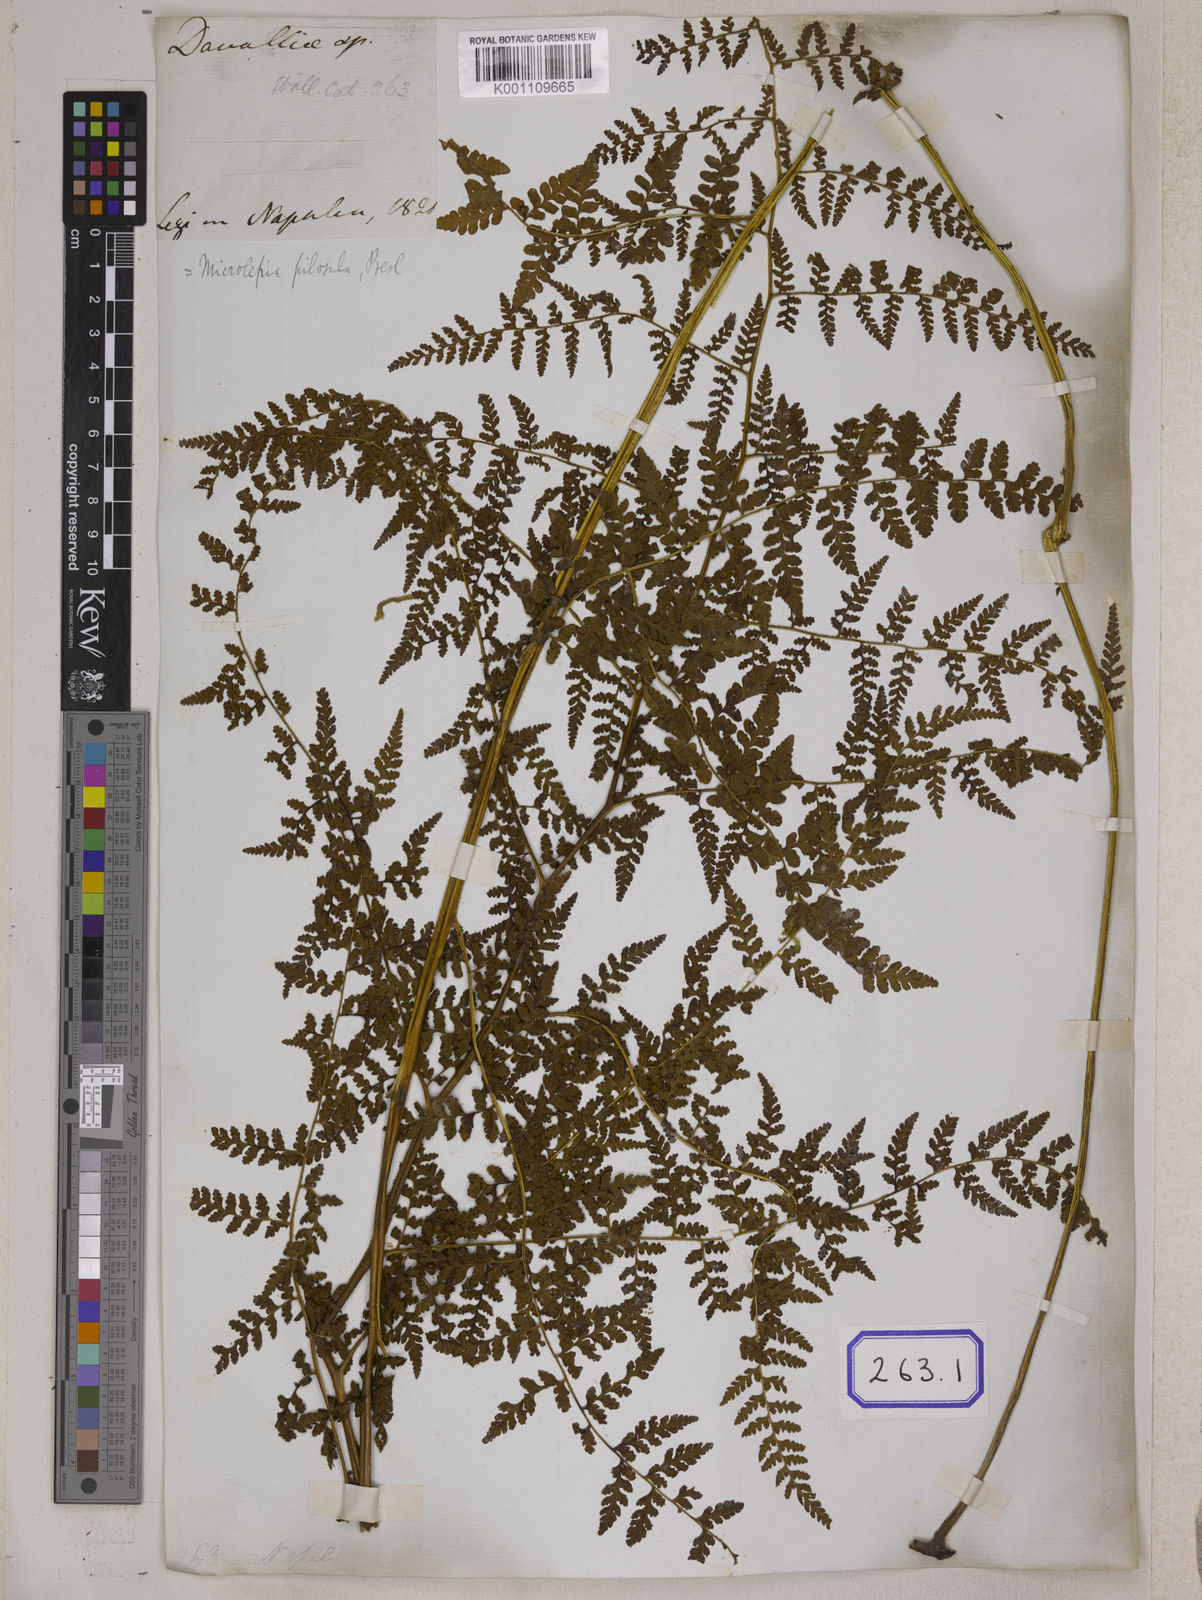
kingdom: Plantae
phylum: Tracheophyta
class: Polypodiopsida
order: Polypodiales
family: Dennstaedtiaceae
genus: Microlepia
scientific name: Microlepia speluncae
